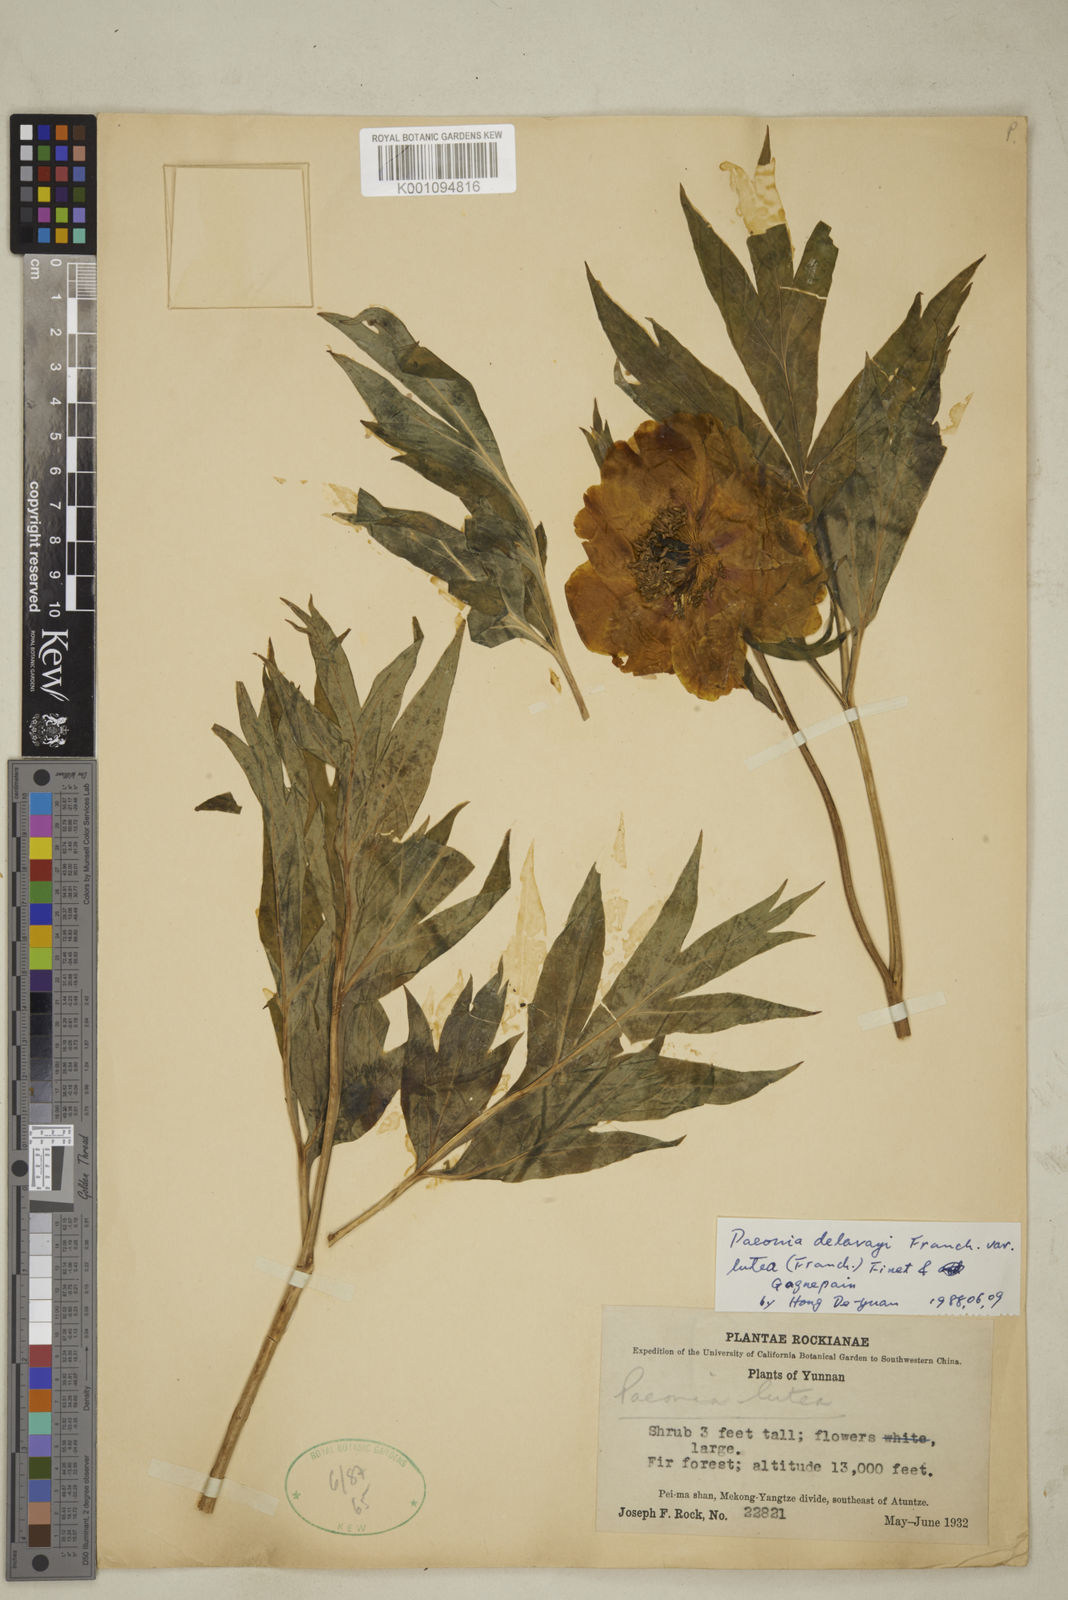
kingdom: Plantae
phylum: Tracheophyta
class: Magnoliopsida
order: Saxifragales
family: Paeoniaceae
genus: Paeonia
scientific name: Paeonia delavayi
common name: Dian mu dan
